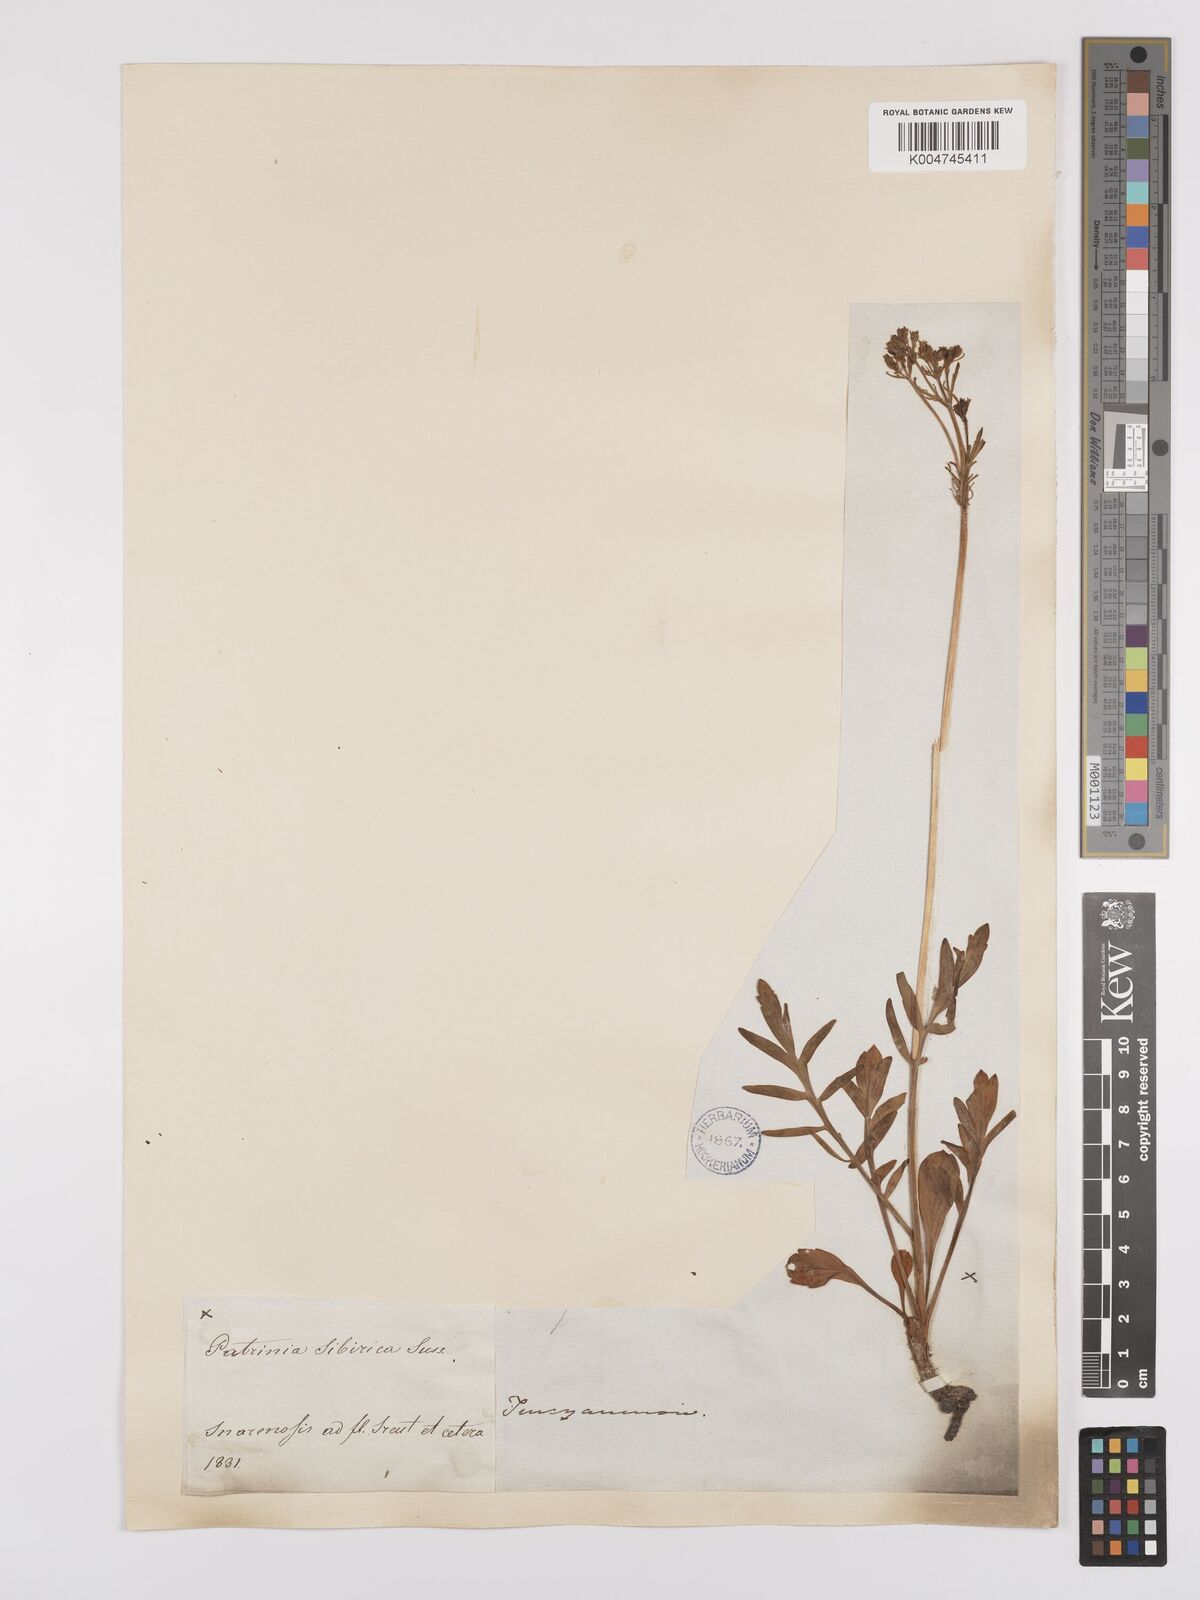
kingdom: Plantae
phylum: Tracheophyta
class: Magnoliopsida
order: Dipsacales
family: Caprifoliaceae
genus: Patrinia
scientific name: Patrinia sibirica
